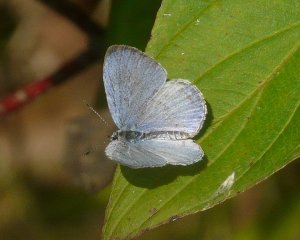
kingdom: Animalia
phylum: Arthropoda
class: Insecta
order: Lepidoptera
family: Lycaenidae
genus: Cyaniris
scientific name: Cyaniris neglecta
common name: Summer Azure
